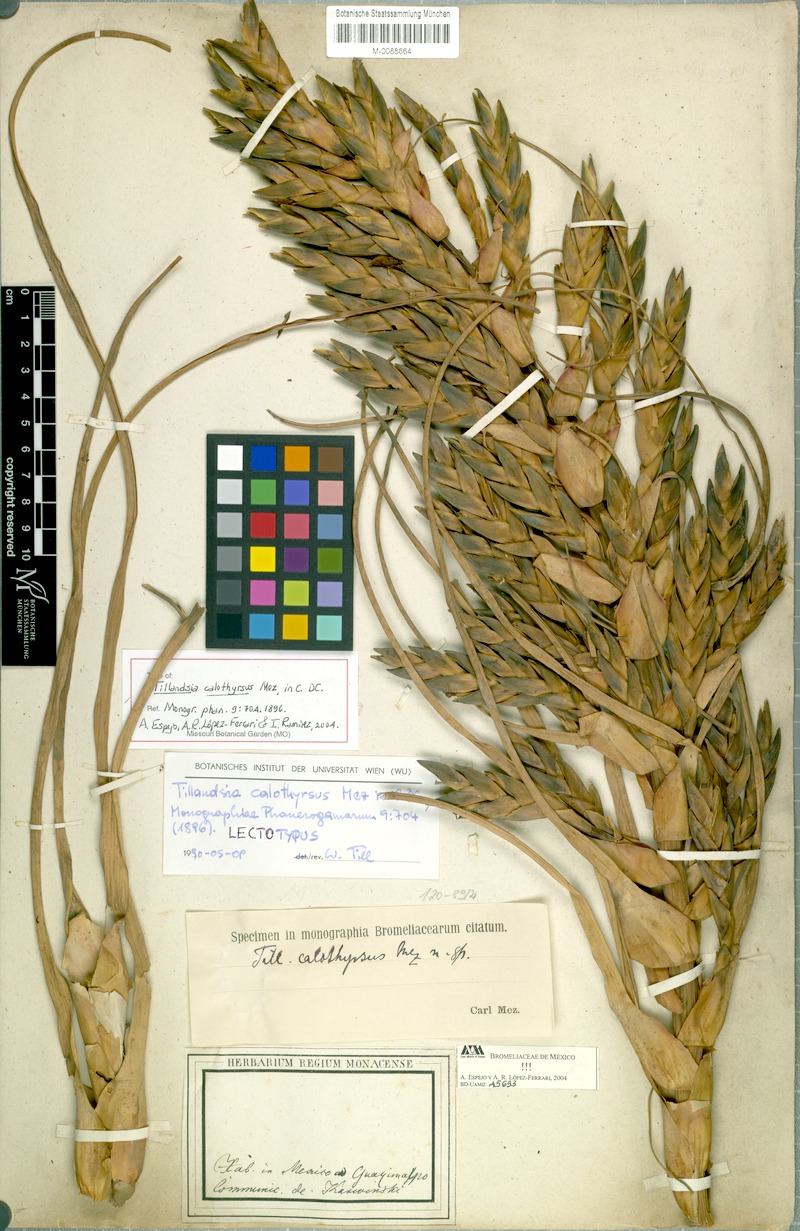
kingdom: Plantae
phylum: Tracheophyta
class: Liliopsida
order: Poales
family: Bromeliaceae
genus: Tillandsia
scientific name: Tillandsia calothyrsus
